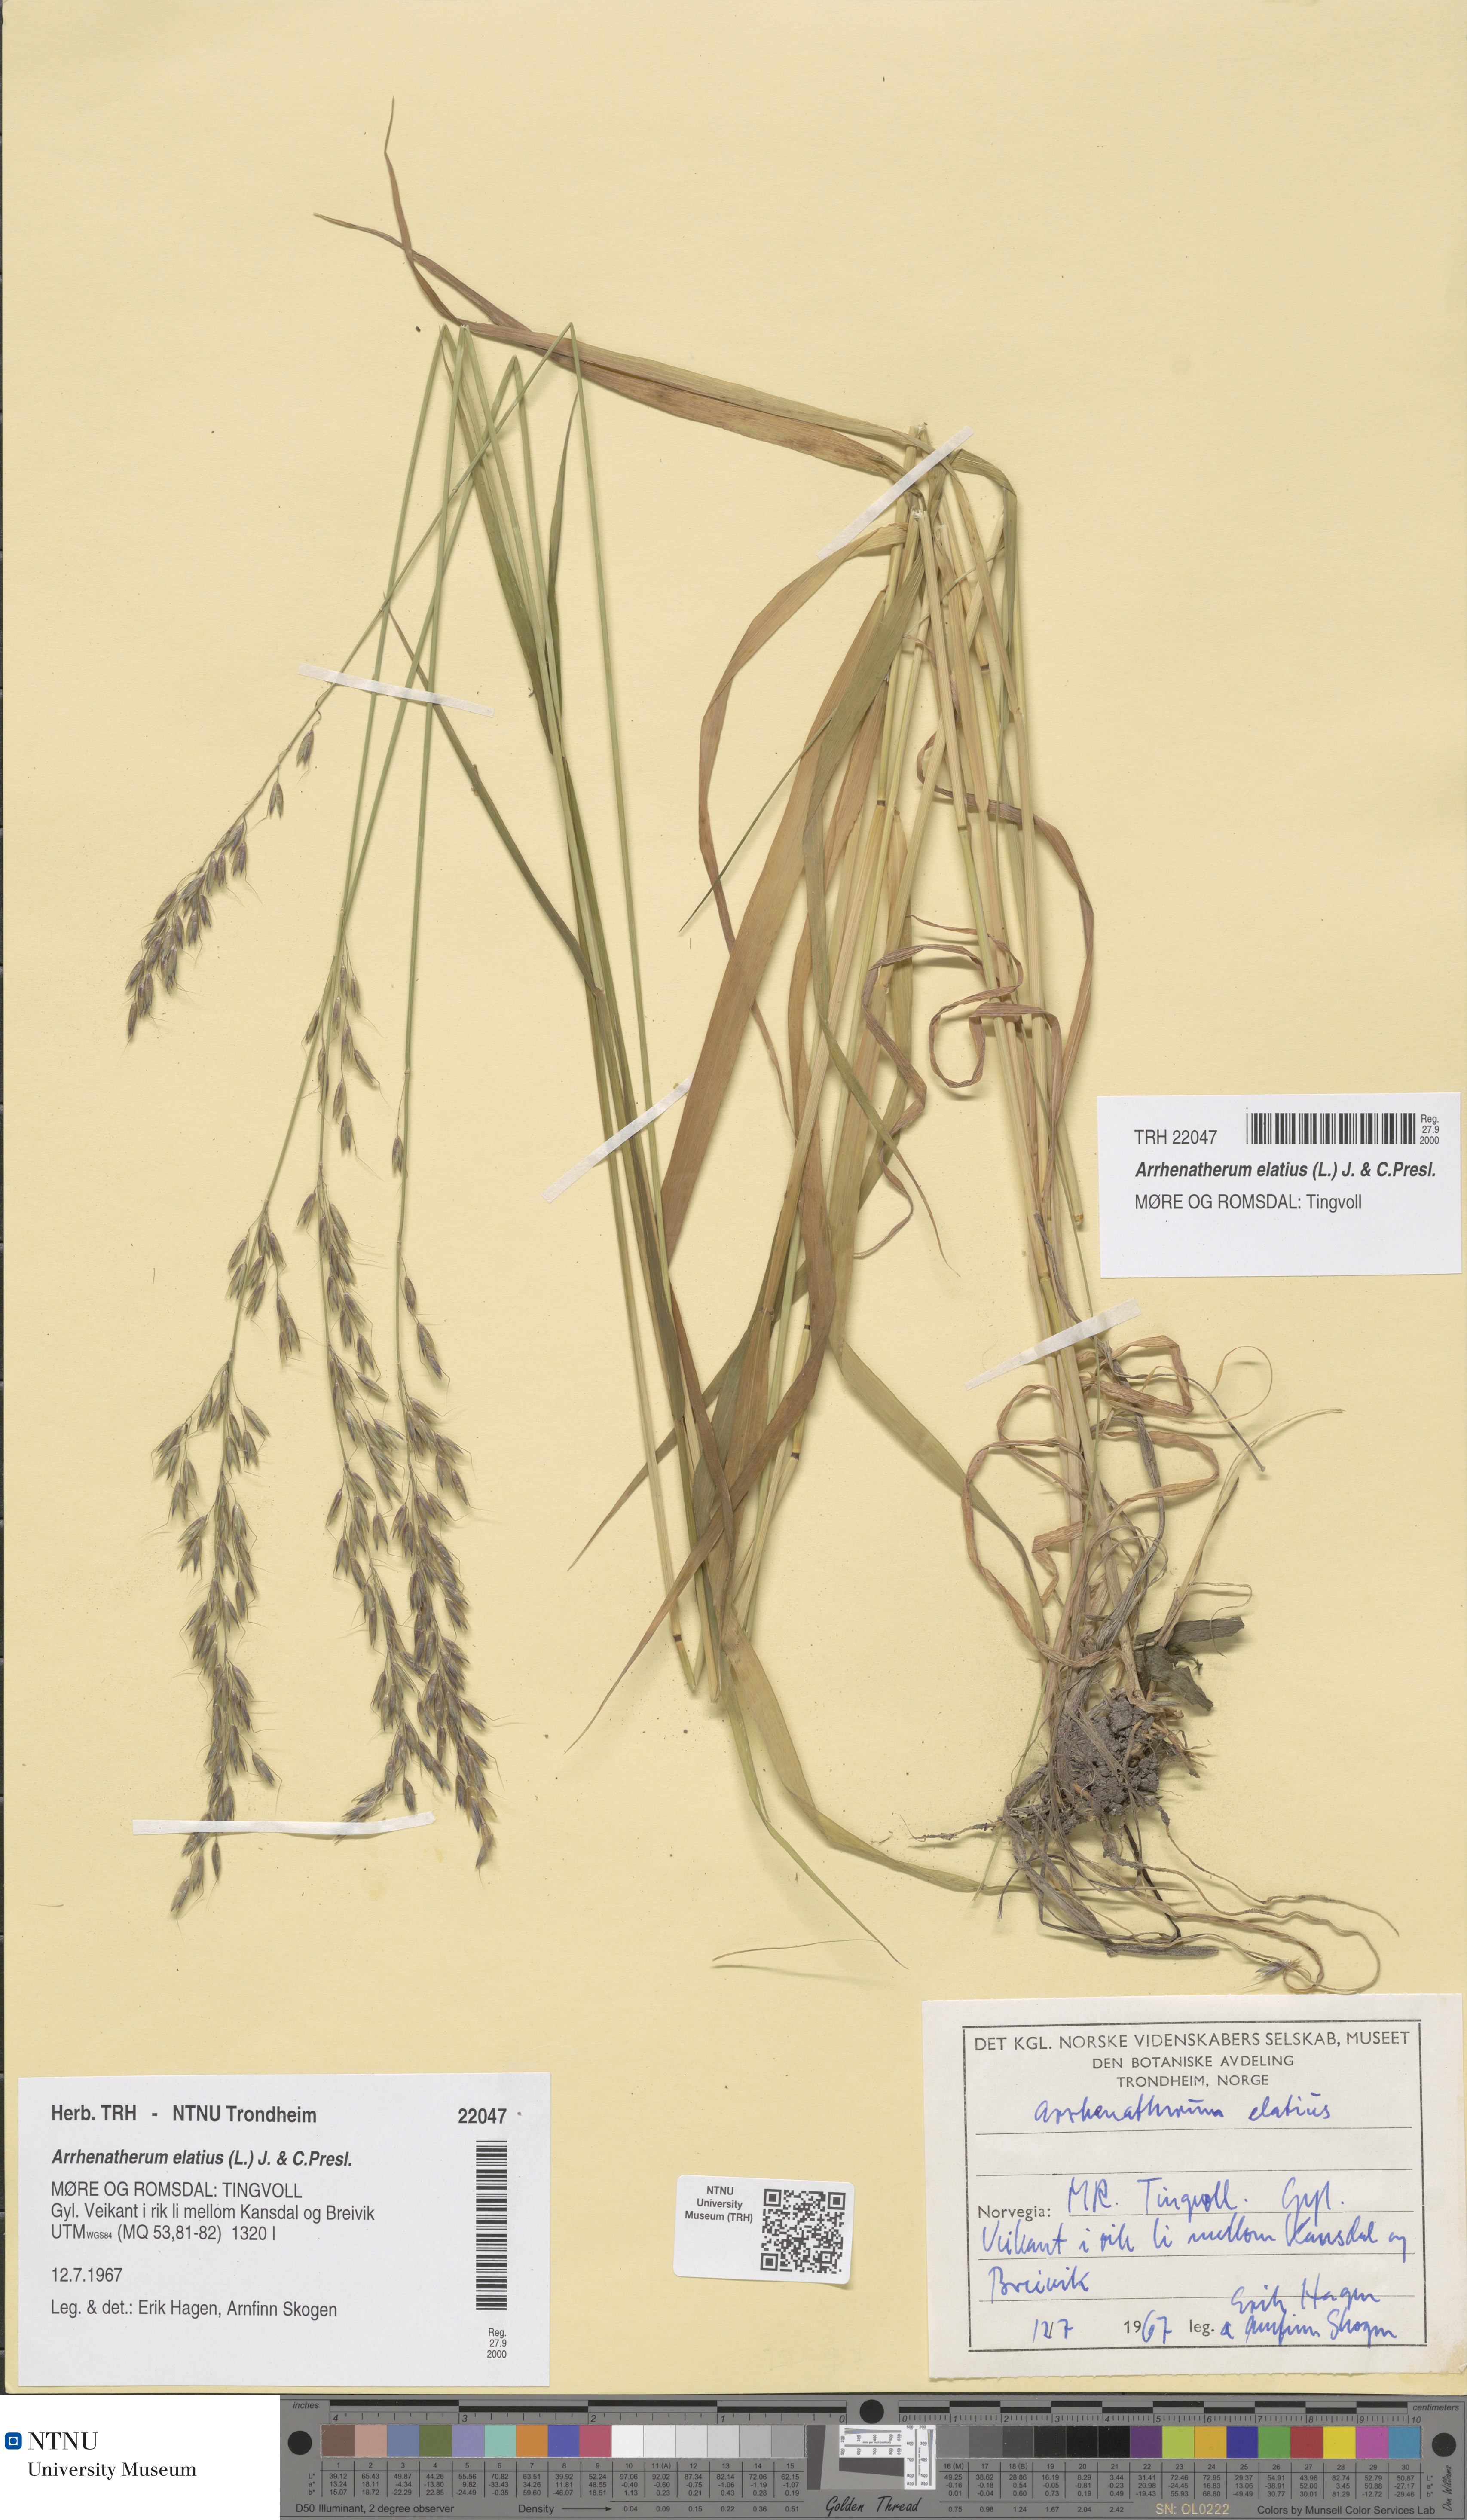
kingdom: Plantae
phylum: Tracheophyta
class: Liliopsida
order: Poales
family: Poaceae
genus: Arrhenatherum
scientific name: Arrhenatherum elatius
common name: Tall oatgrass
